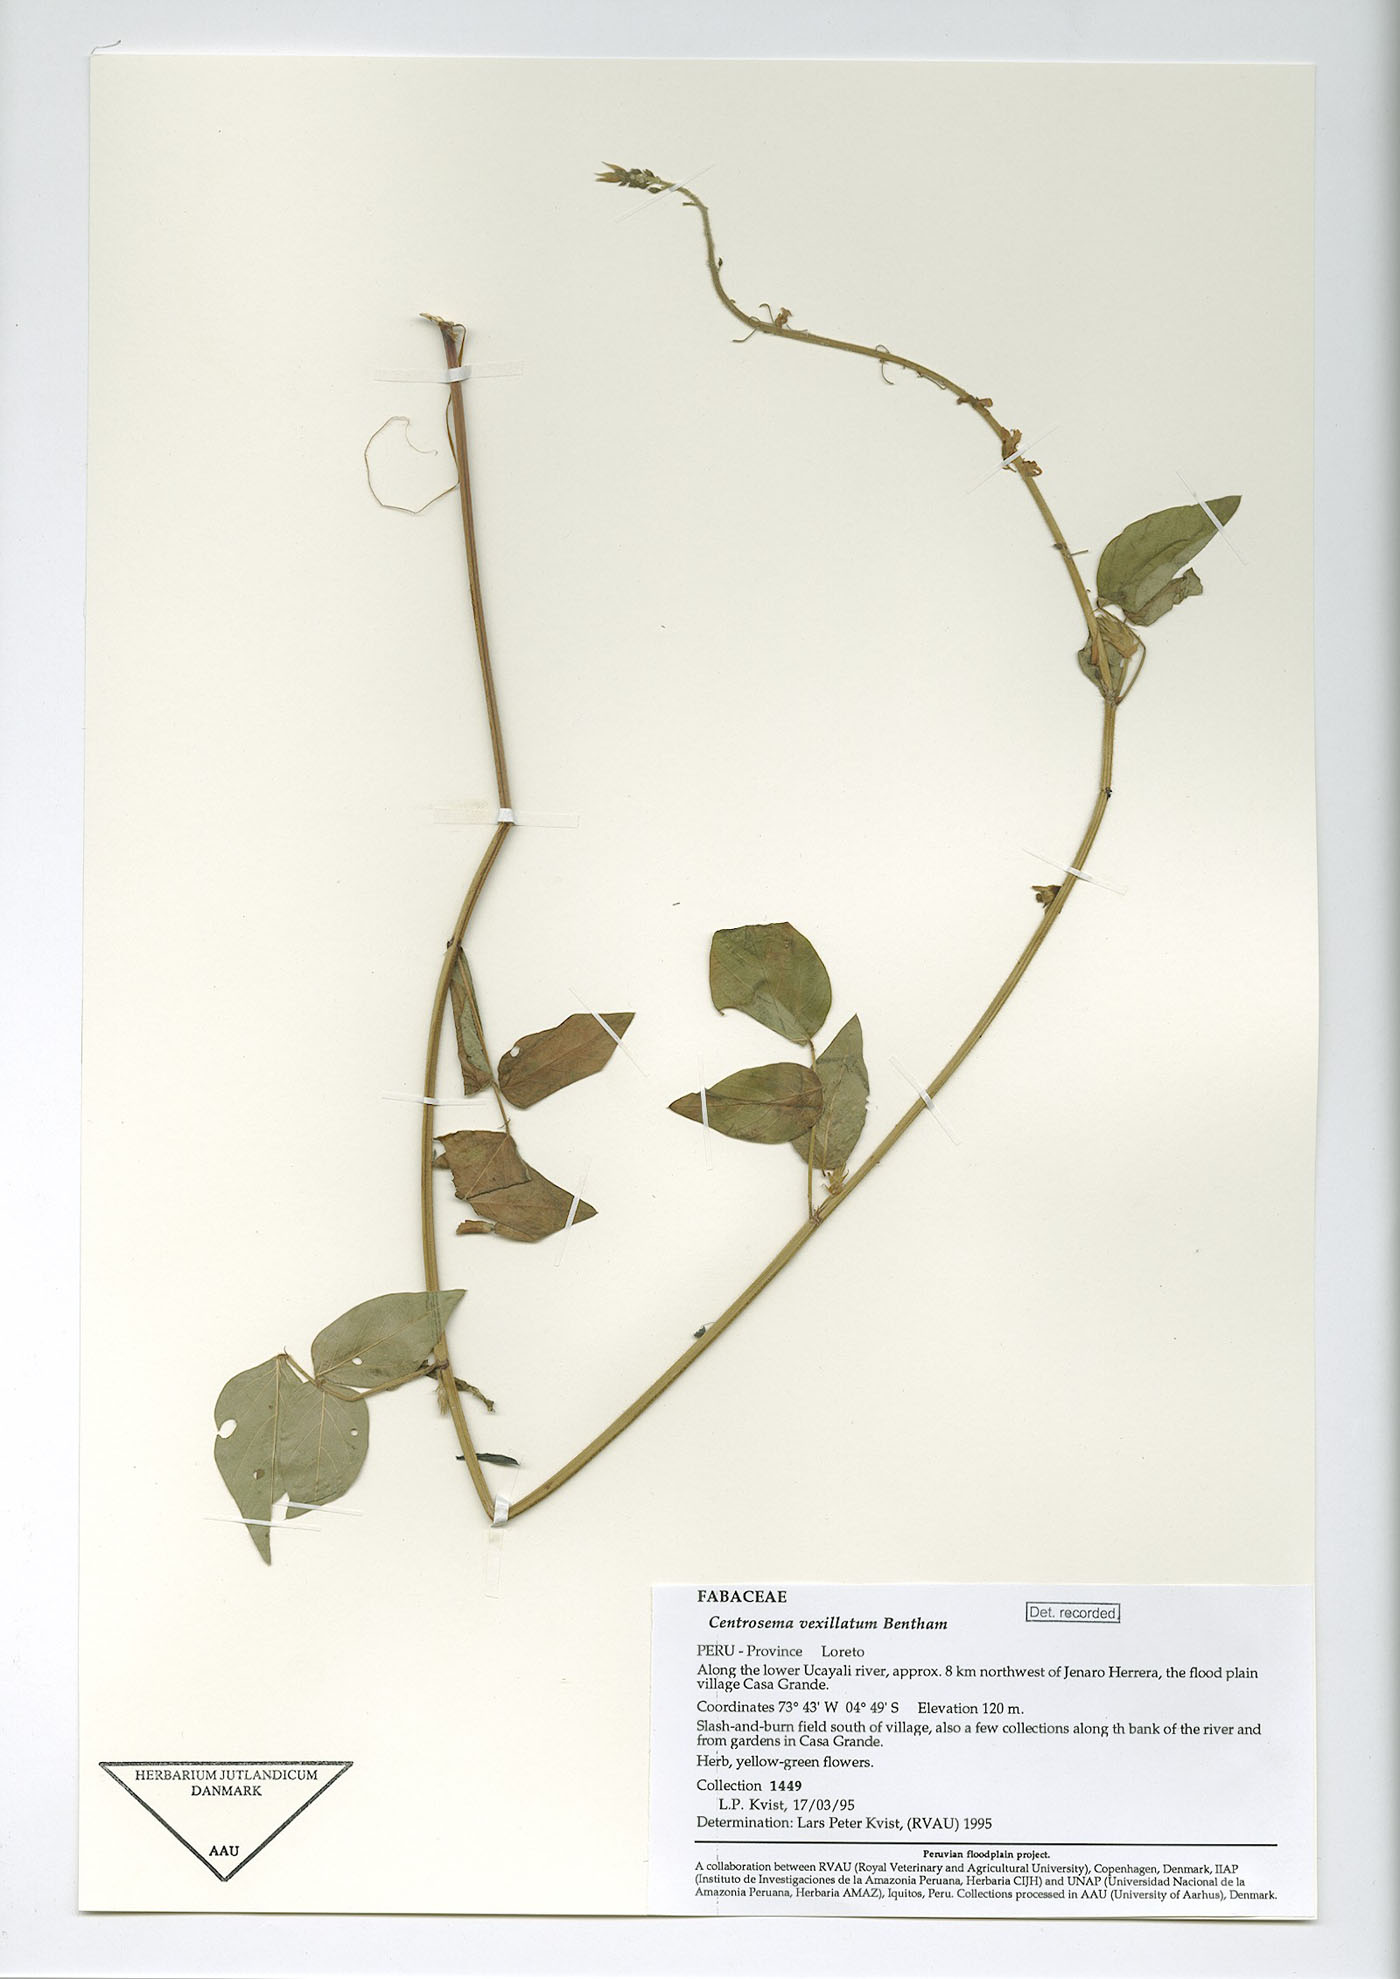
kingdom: Plantae
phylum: Tracheophyta
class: Magnoliopsida
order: Fabales
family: Fabaceae
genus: Phaseolus
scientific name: Phaseolus
